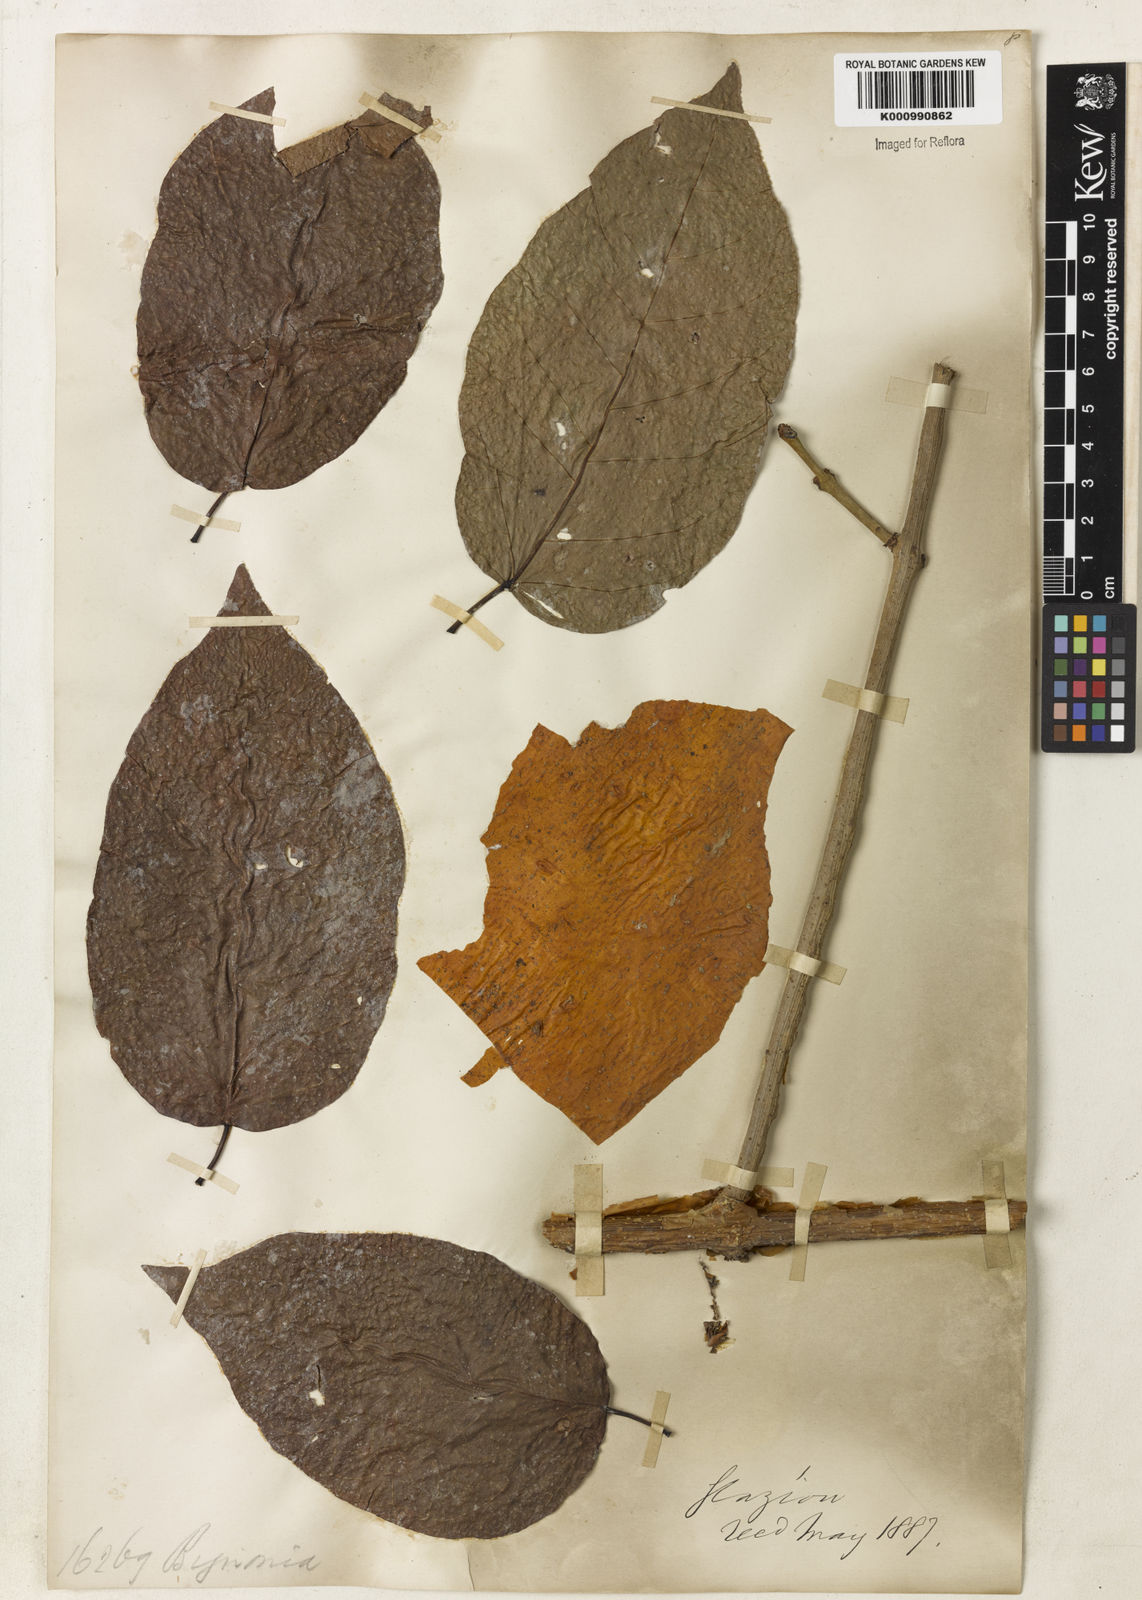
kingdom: Plantae
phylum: Tracheophyta
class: Magnoliopsida
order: Lamiales
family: Bignoniaceae
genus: Xylophragma
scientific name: Xylophragma myrianthum
